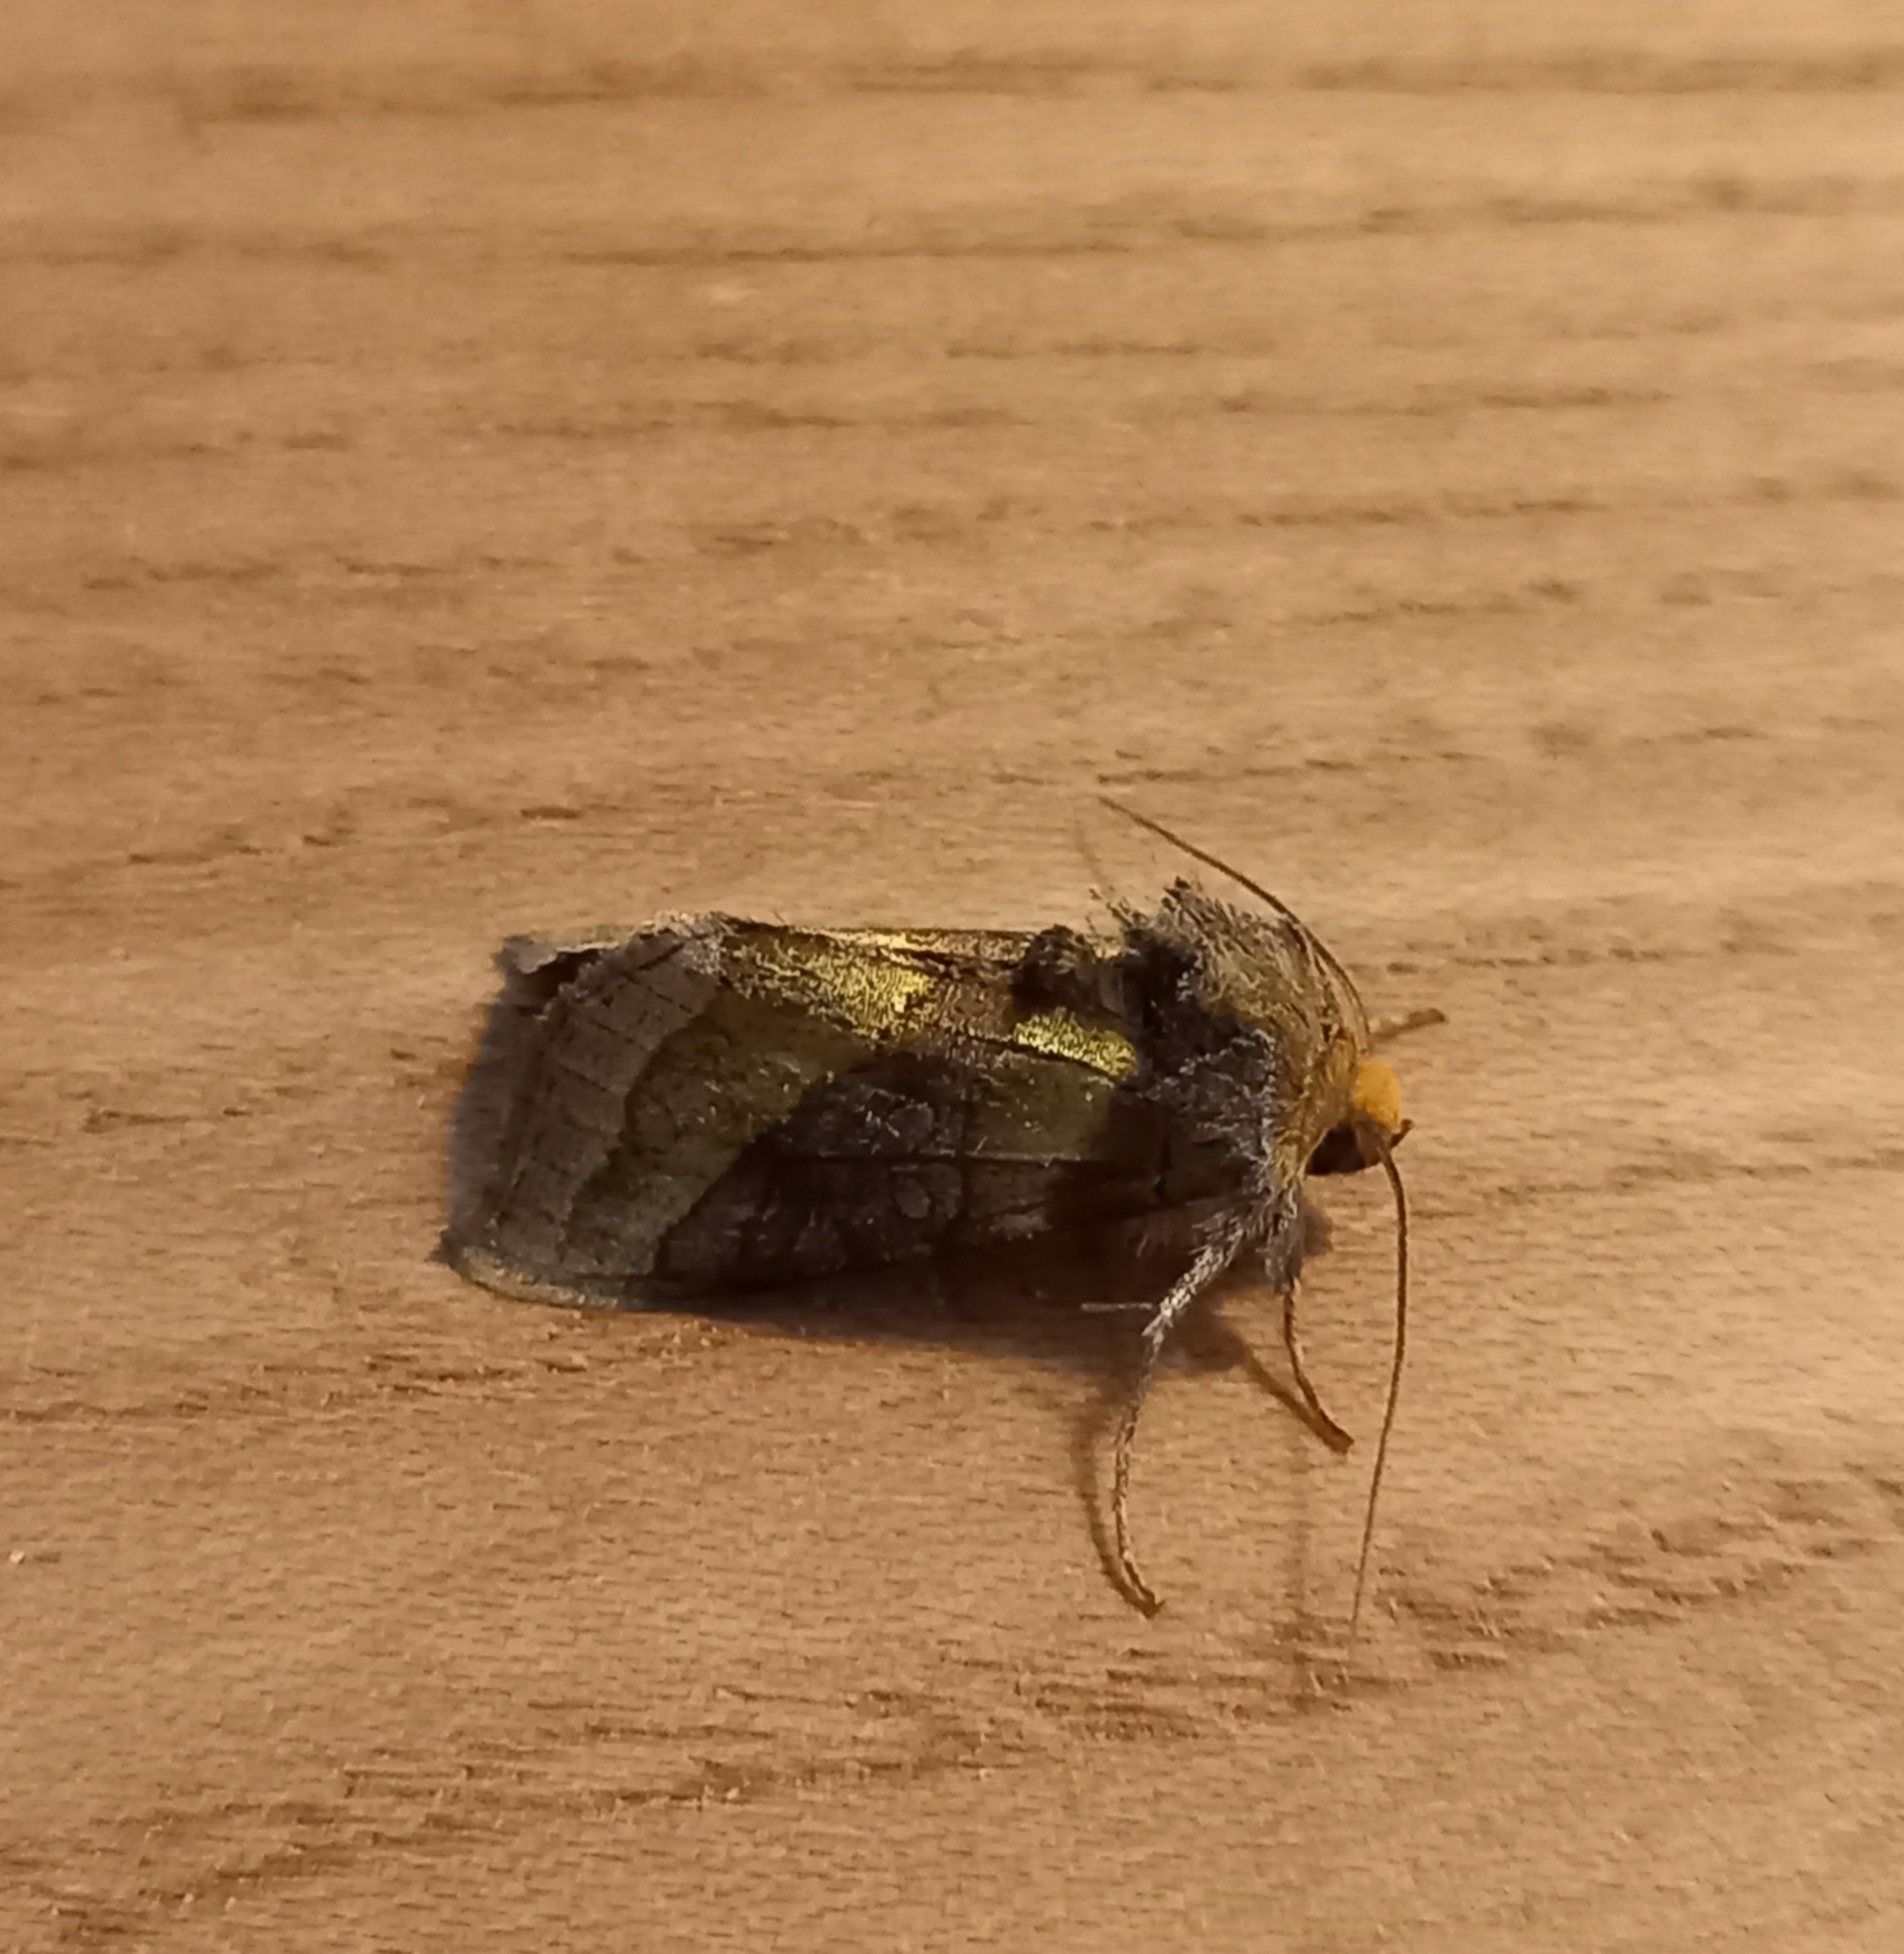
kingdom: Animalia
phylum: Arthropoda
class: Insecta
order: Lepidoptera
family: Noctuidae
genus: Diachrysia
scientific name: Diachrysia chrysitis
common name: Messingugle
